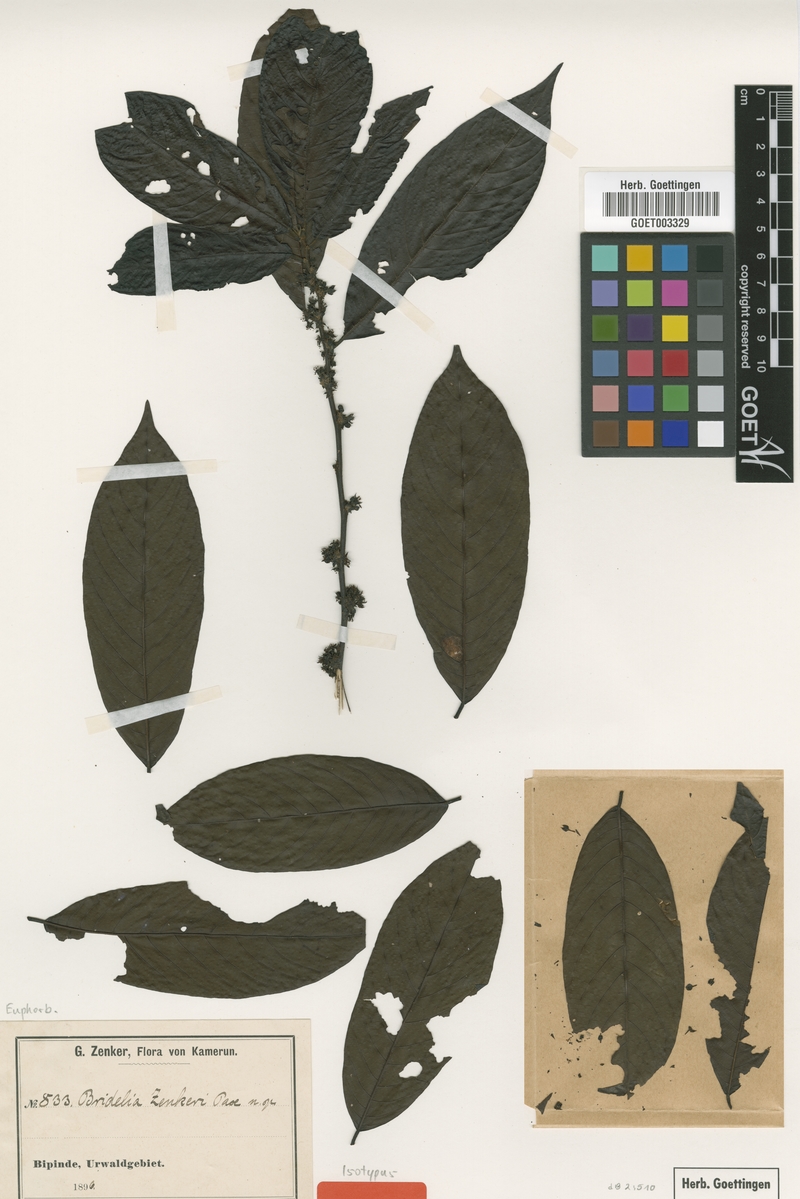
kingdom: Plantae
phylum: Tracheophyta
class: Magnoliopsida
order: Malpighiales
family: Phyllanthaceae
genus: Bridelia
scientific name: Bridelia atroviridis
